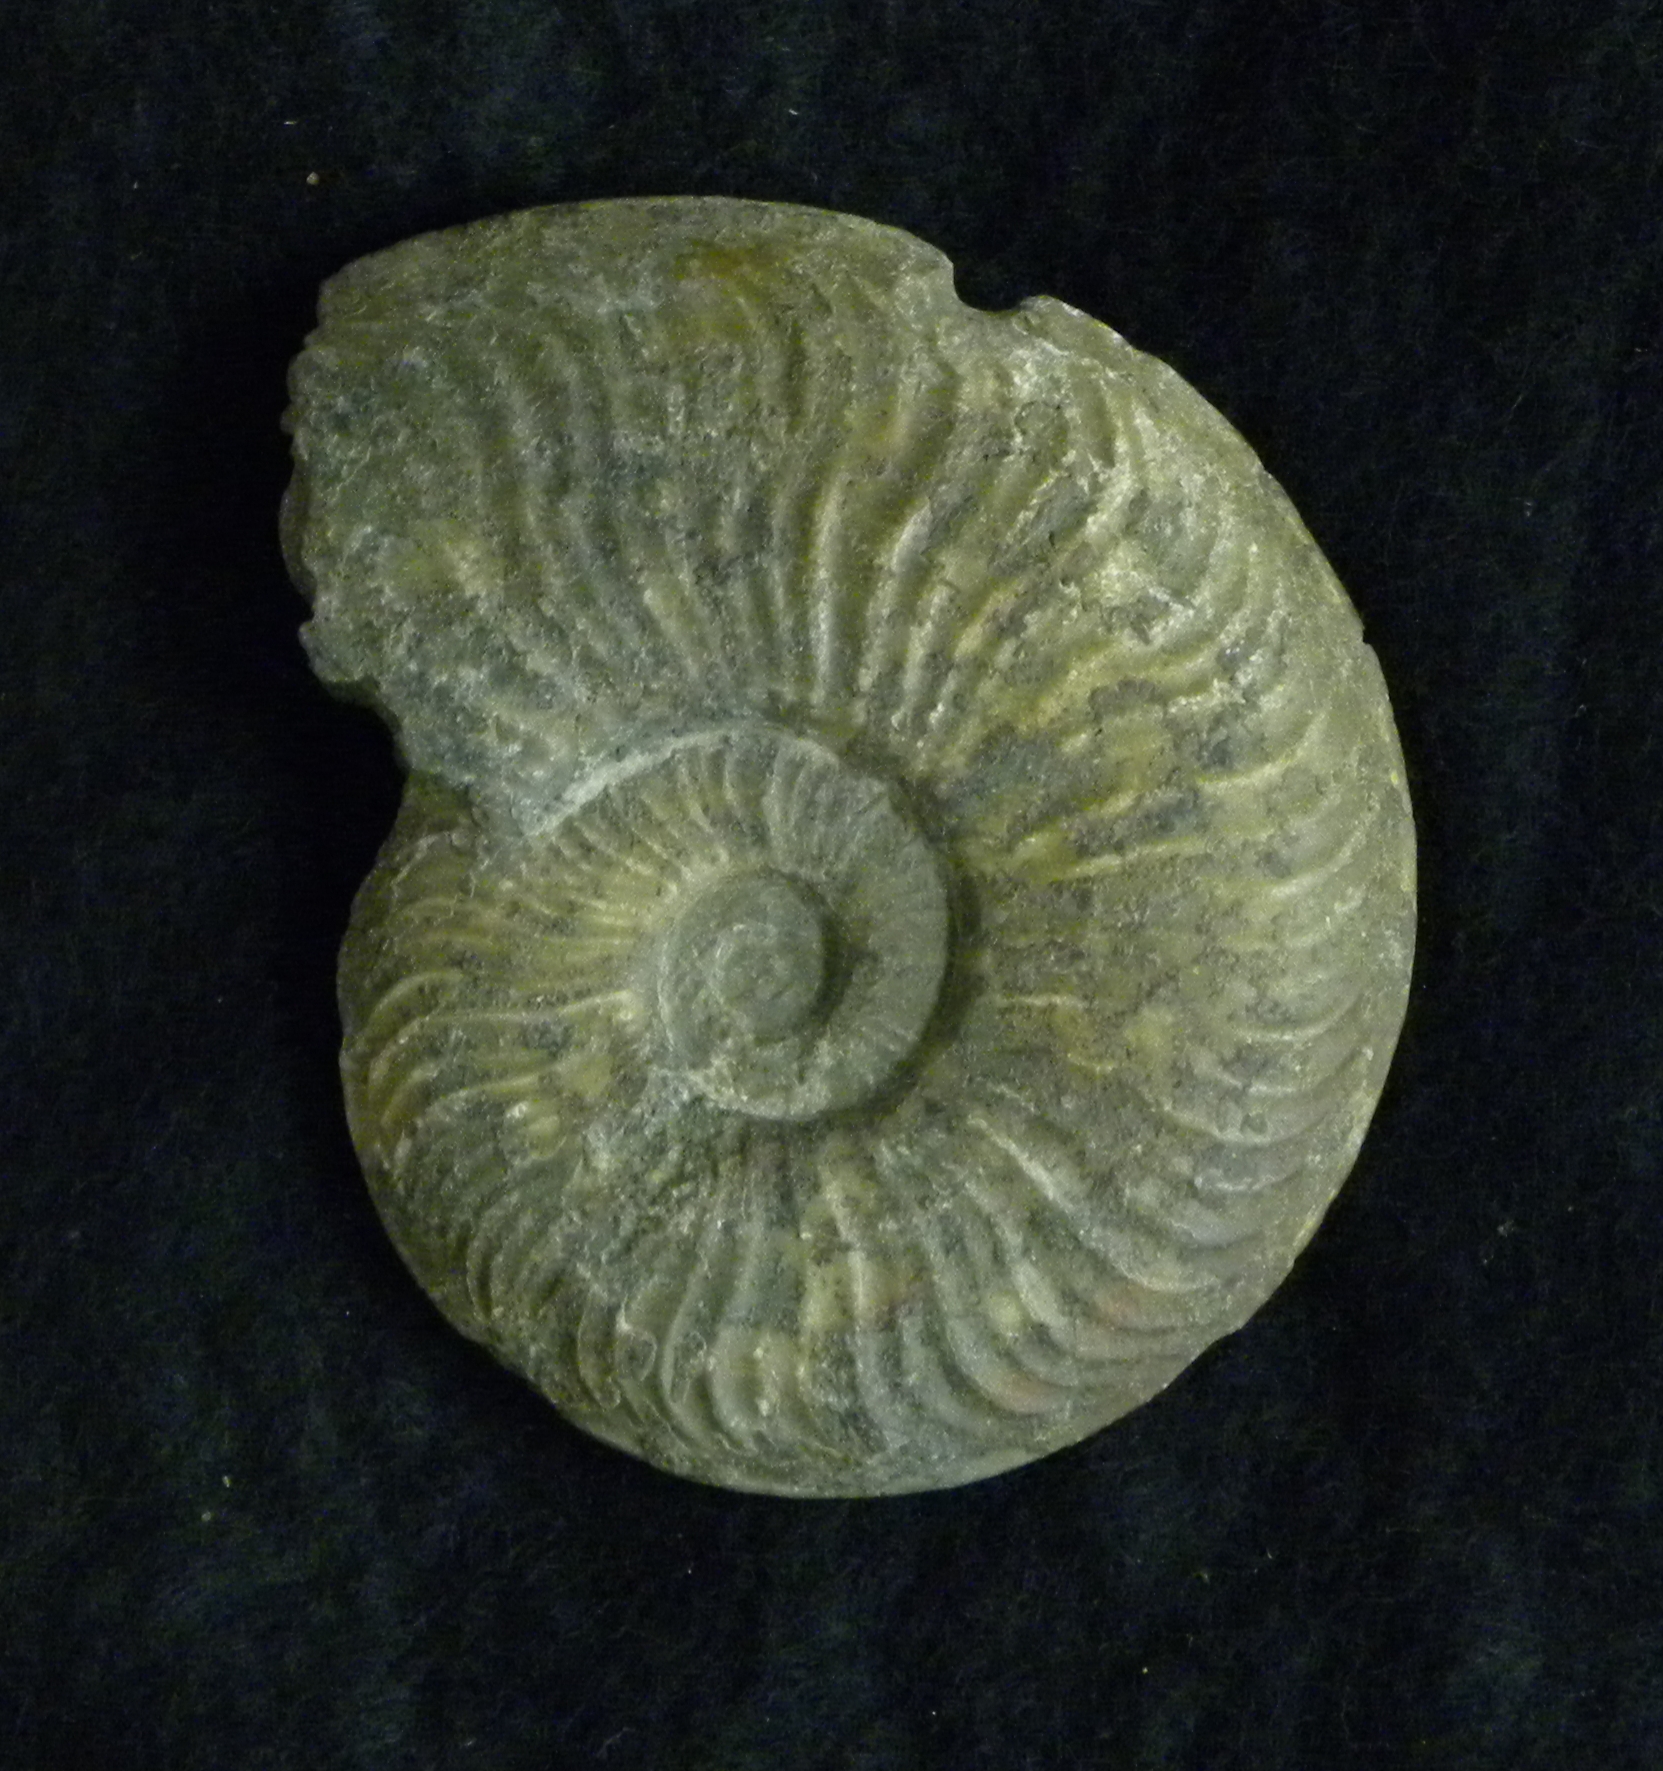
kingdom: Animalia
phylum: Mollusca
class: Cephalopoda
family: Hildoceratidae
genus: Pleydellia
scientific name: Pleydellia falcifer
